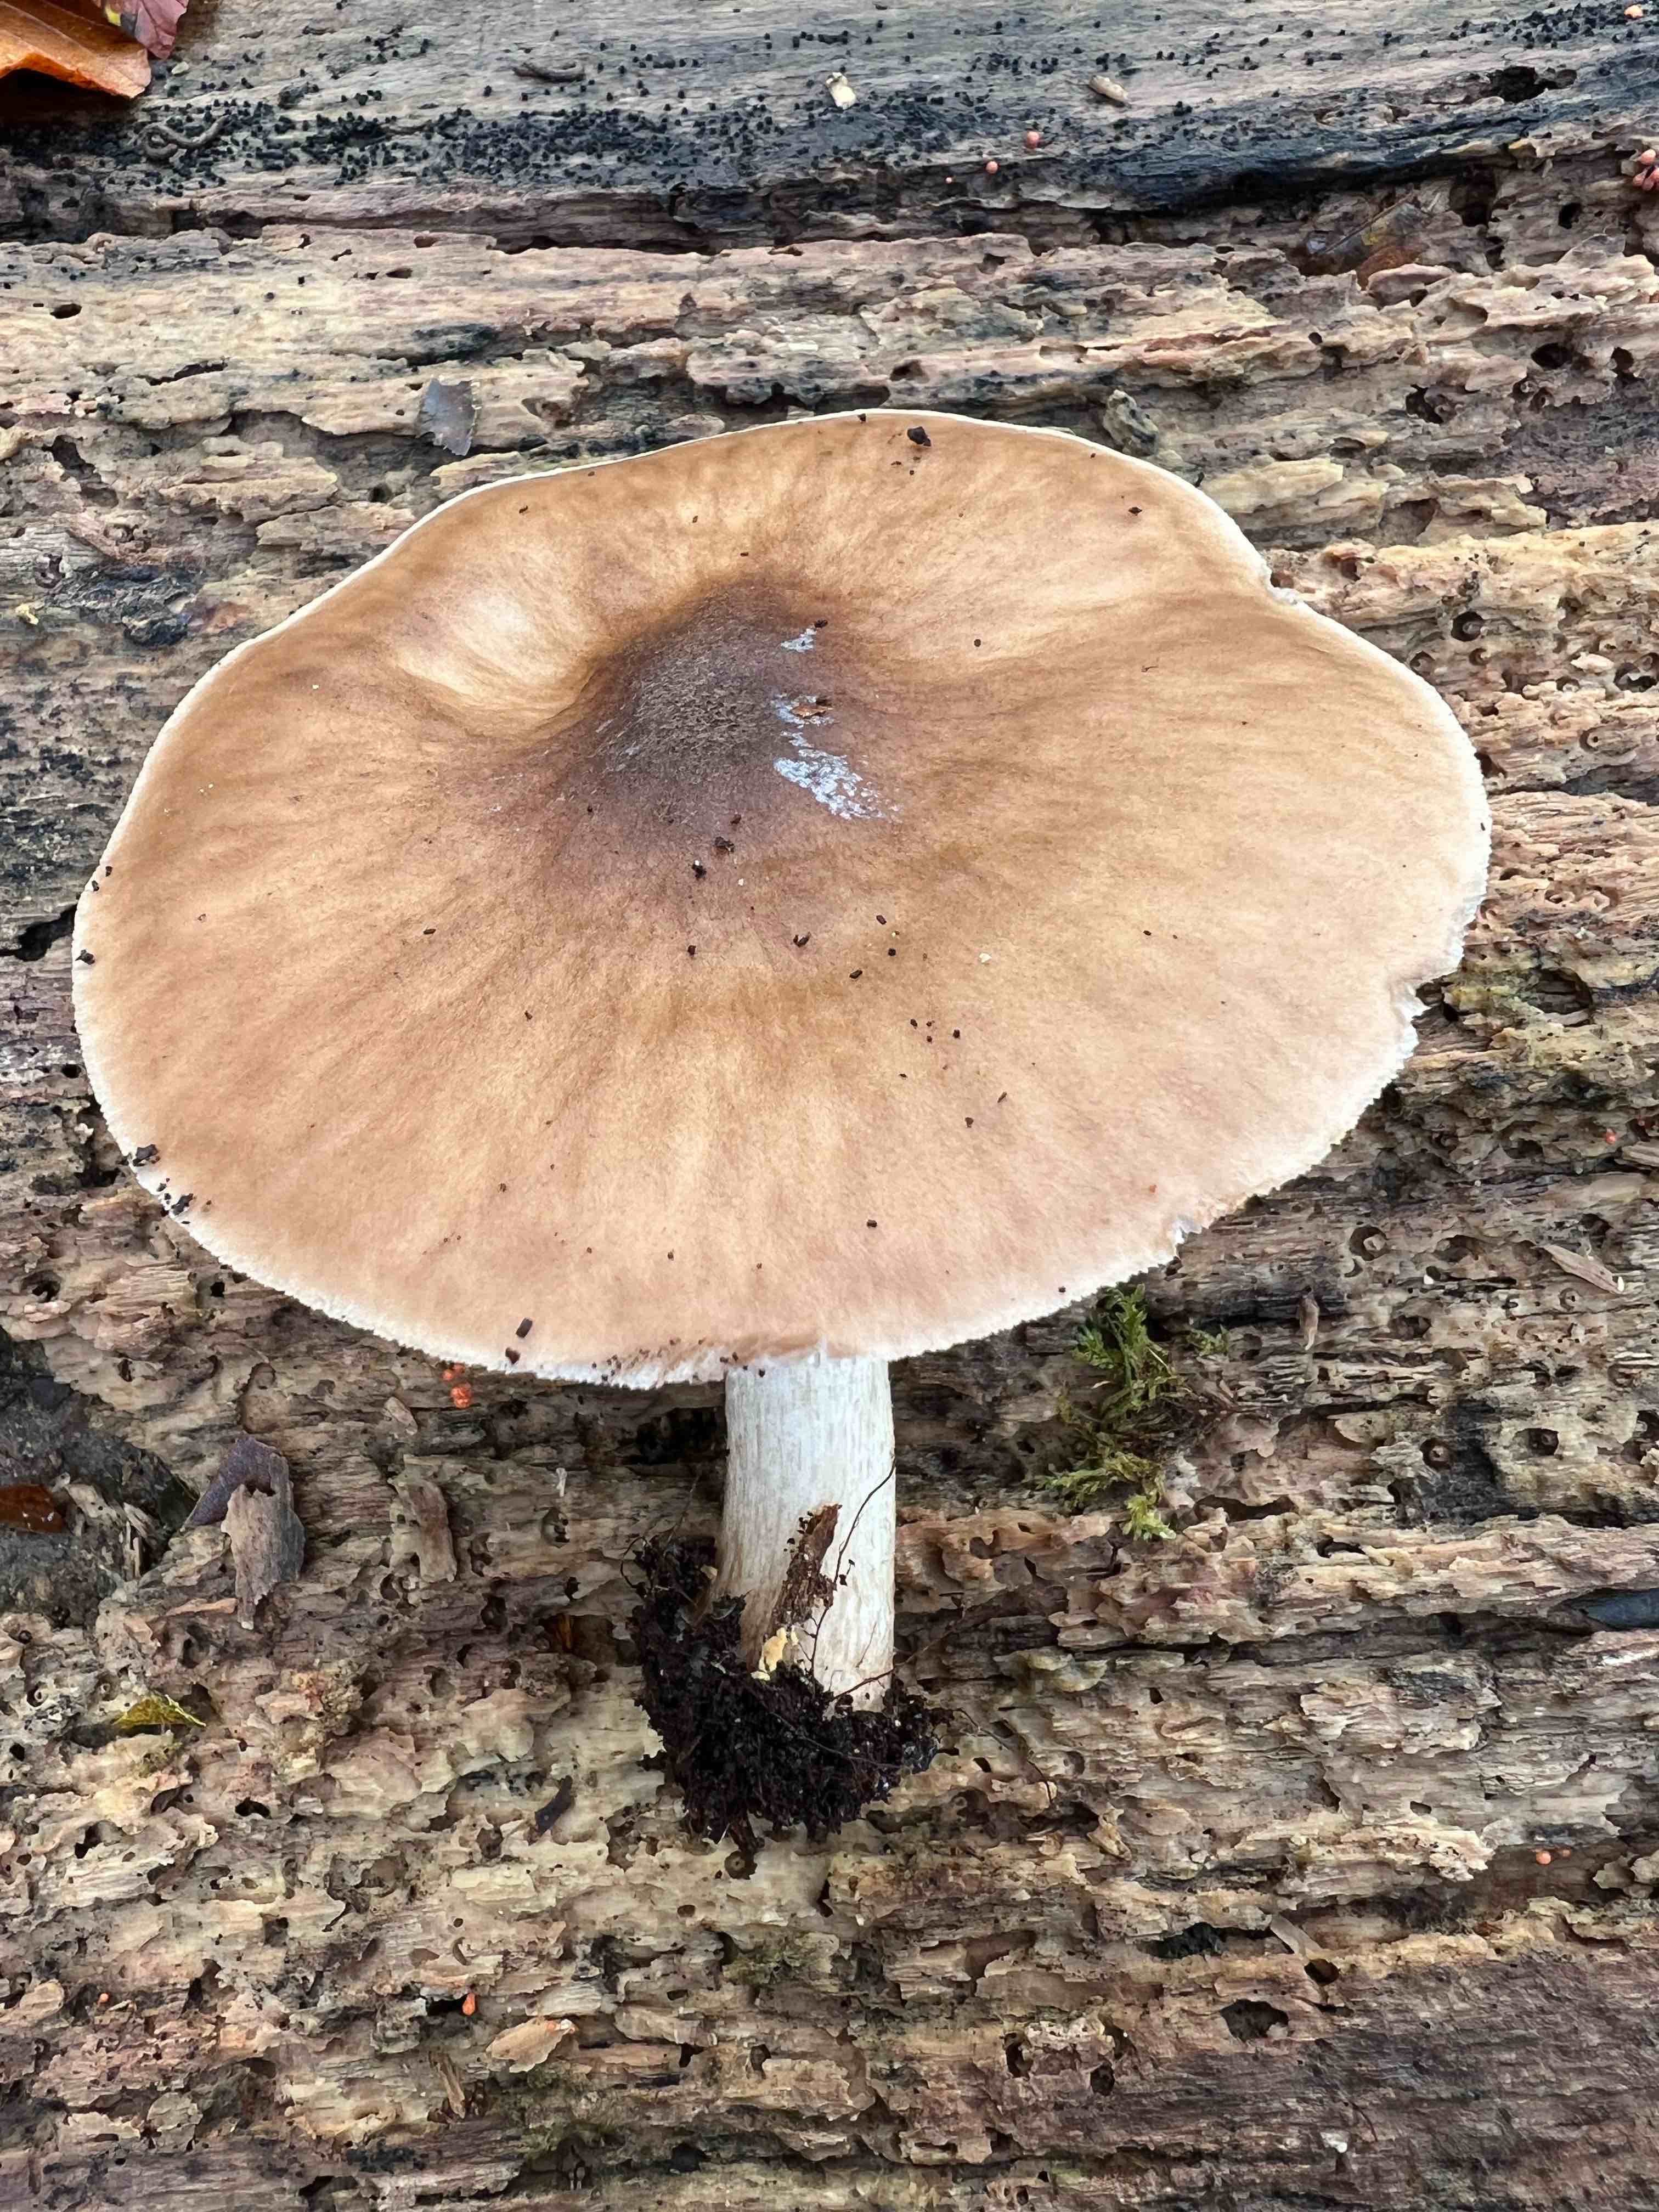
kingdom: Fungi
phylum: Basidiomycota
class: Agaricomycetes
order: Agaricales
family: Pluteaceae
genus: Pluteus
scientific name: Pluteus cervinus
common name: sodfarvet skærmhat
